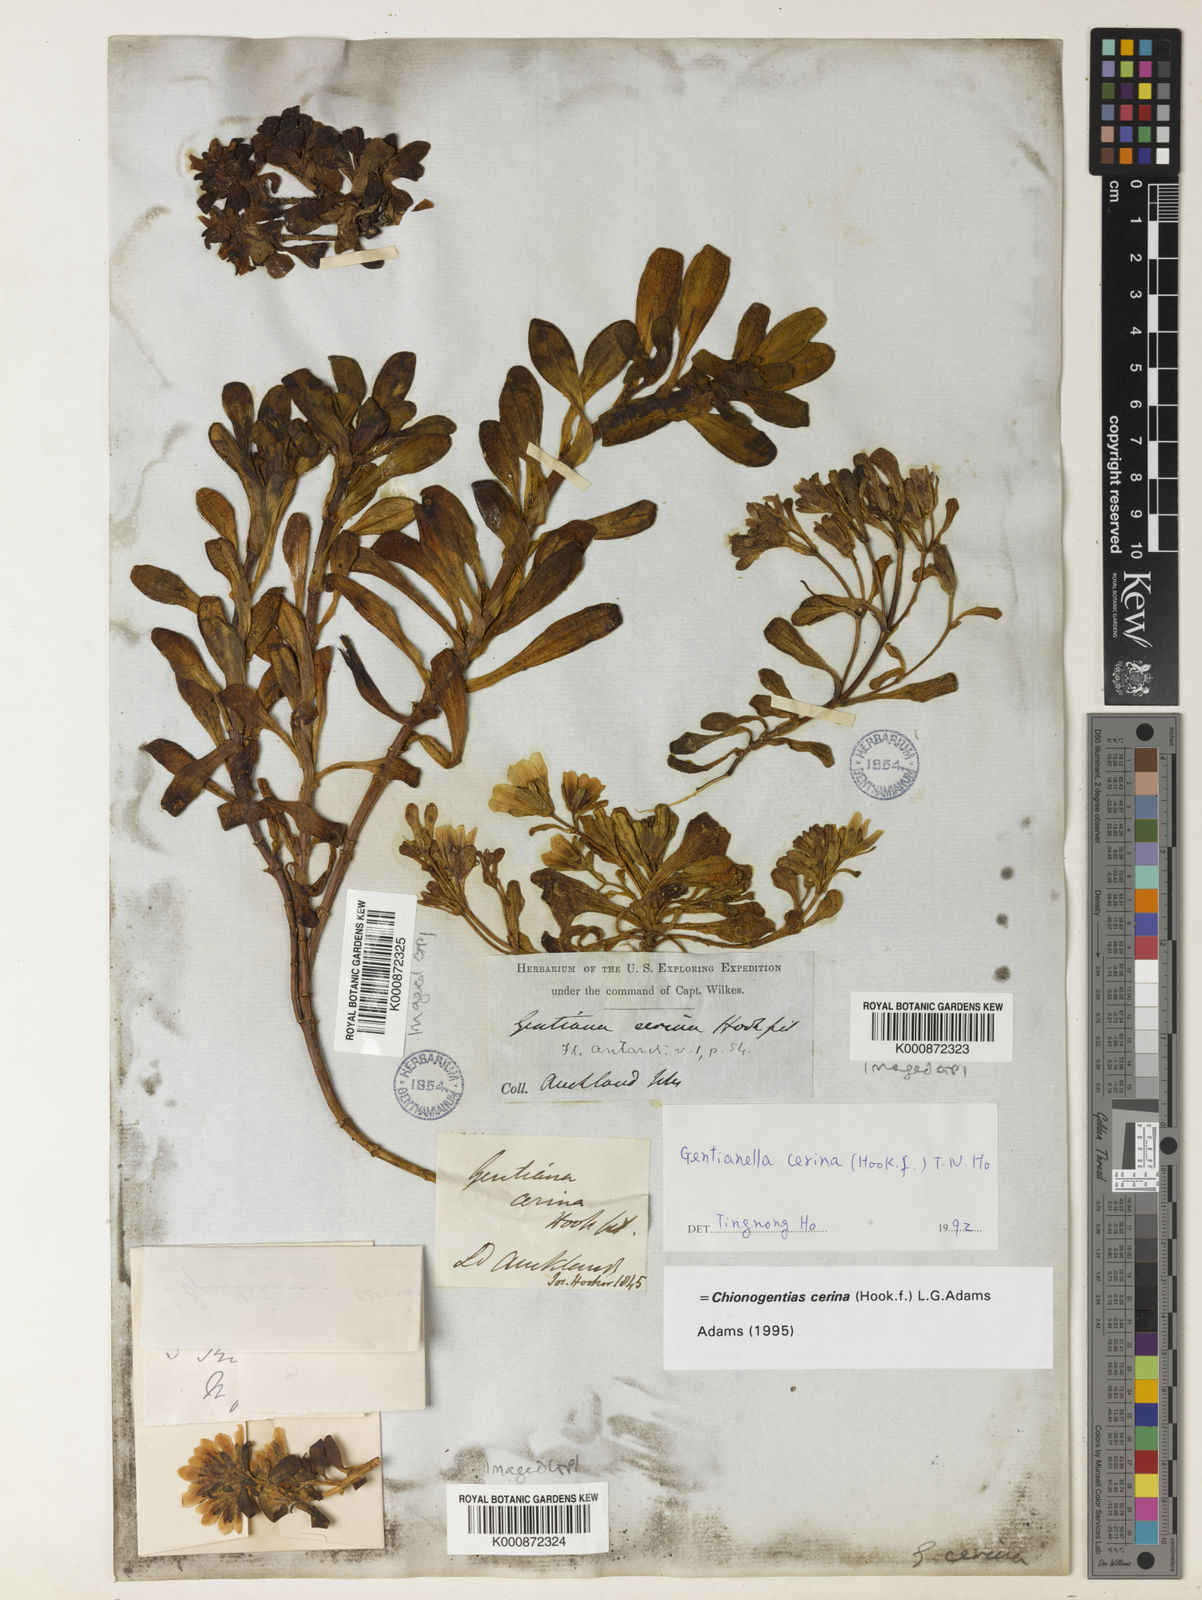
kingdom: Plantae
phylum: Tracheophyta
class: Magnoliopsida
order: Gentianales
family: Gentianaceae
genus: Gentianella
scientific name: Gentianella cerina
